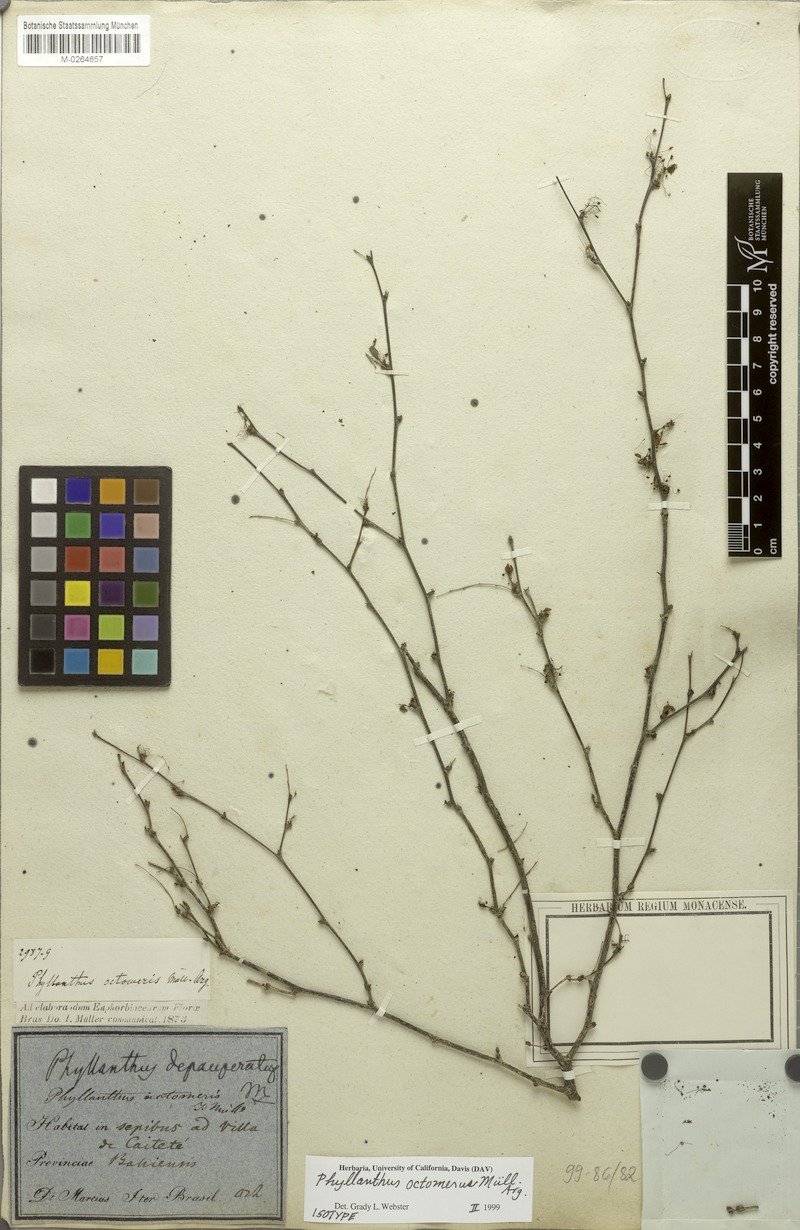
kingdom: Plantae
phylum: Tracheophyta
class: Magnoliopsida
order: Malpighiales
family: Phyllanthaceae
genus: Phyllanthus
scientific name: Phyllanthus octomerus
